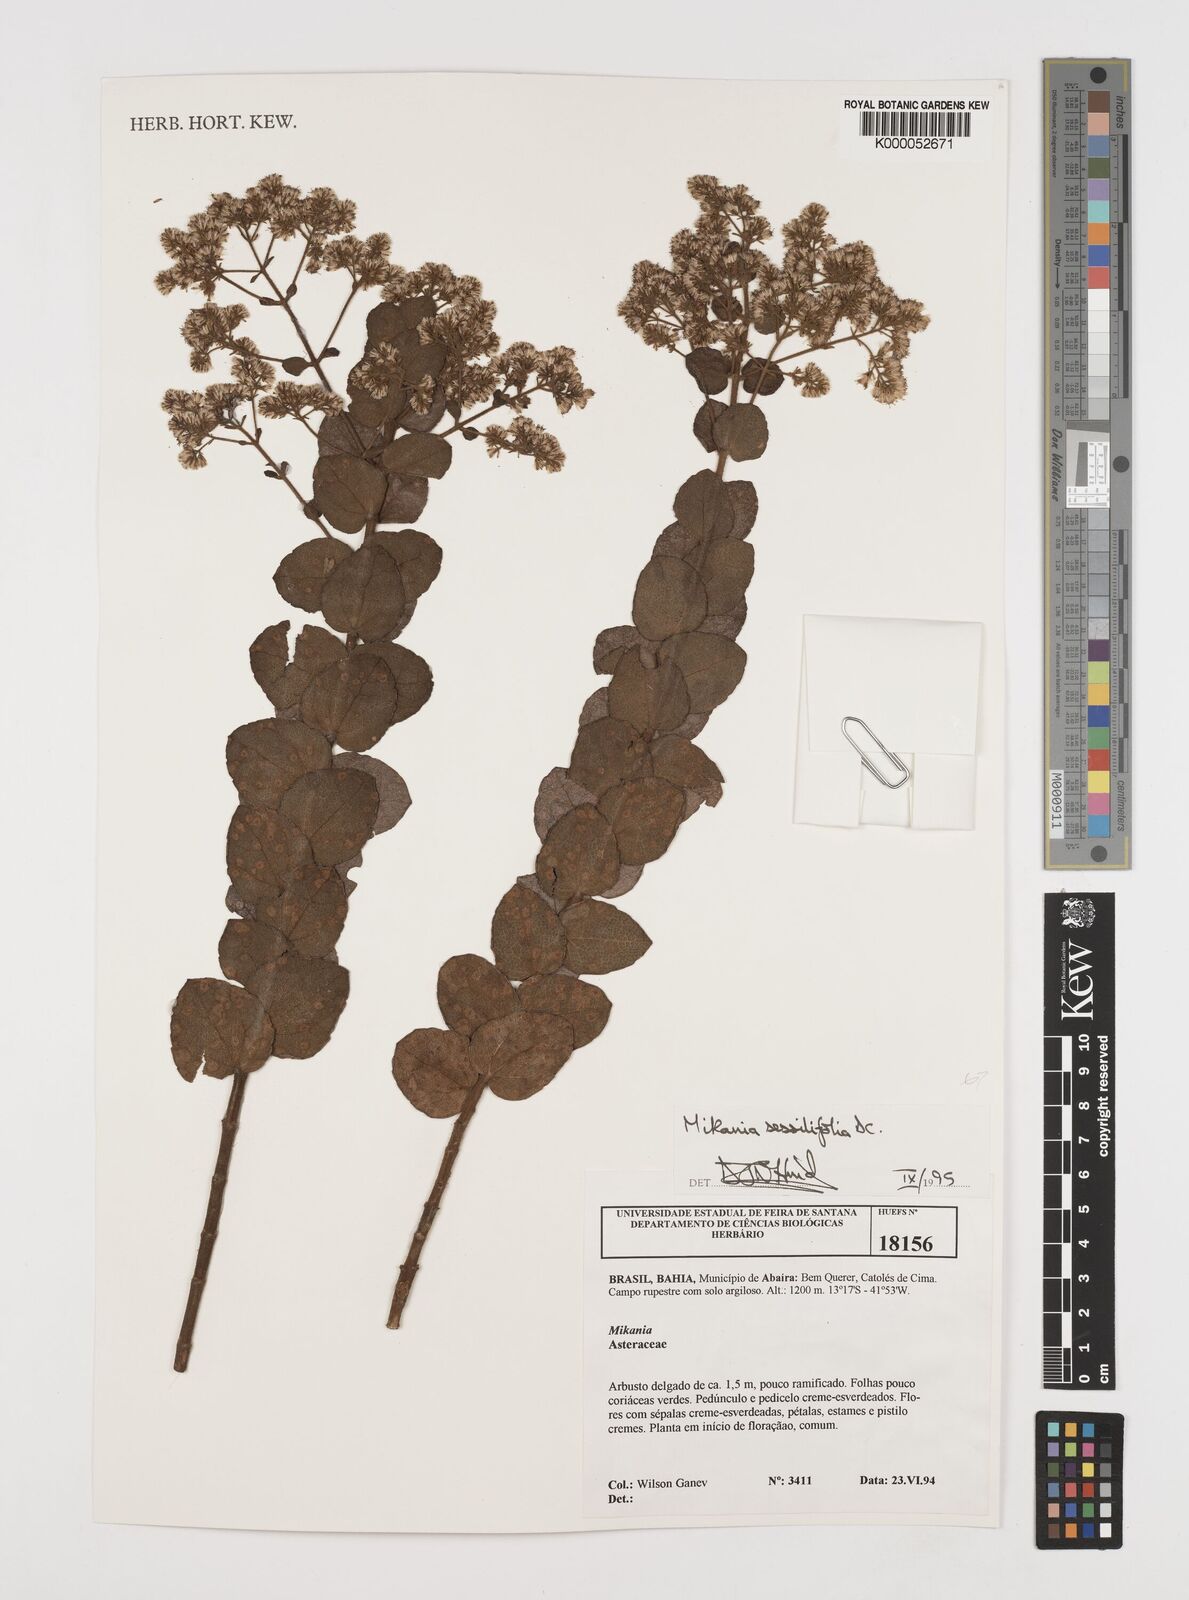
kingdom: Plantae
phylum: Tracheophyta
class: Magnoliopsida
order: Asterales
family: Asteraceae
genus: Mikania
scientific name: Mikania sessilifolia
